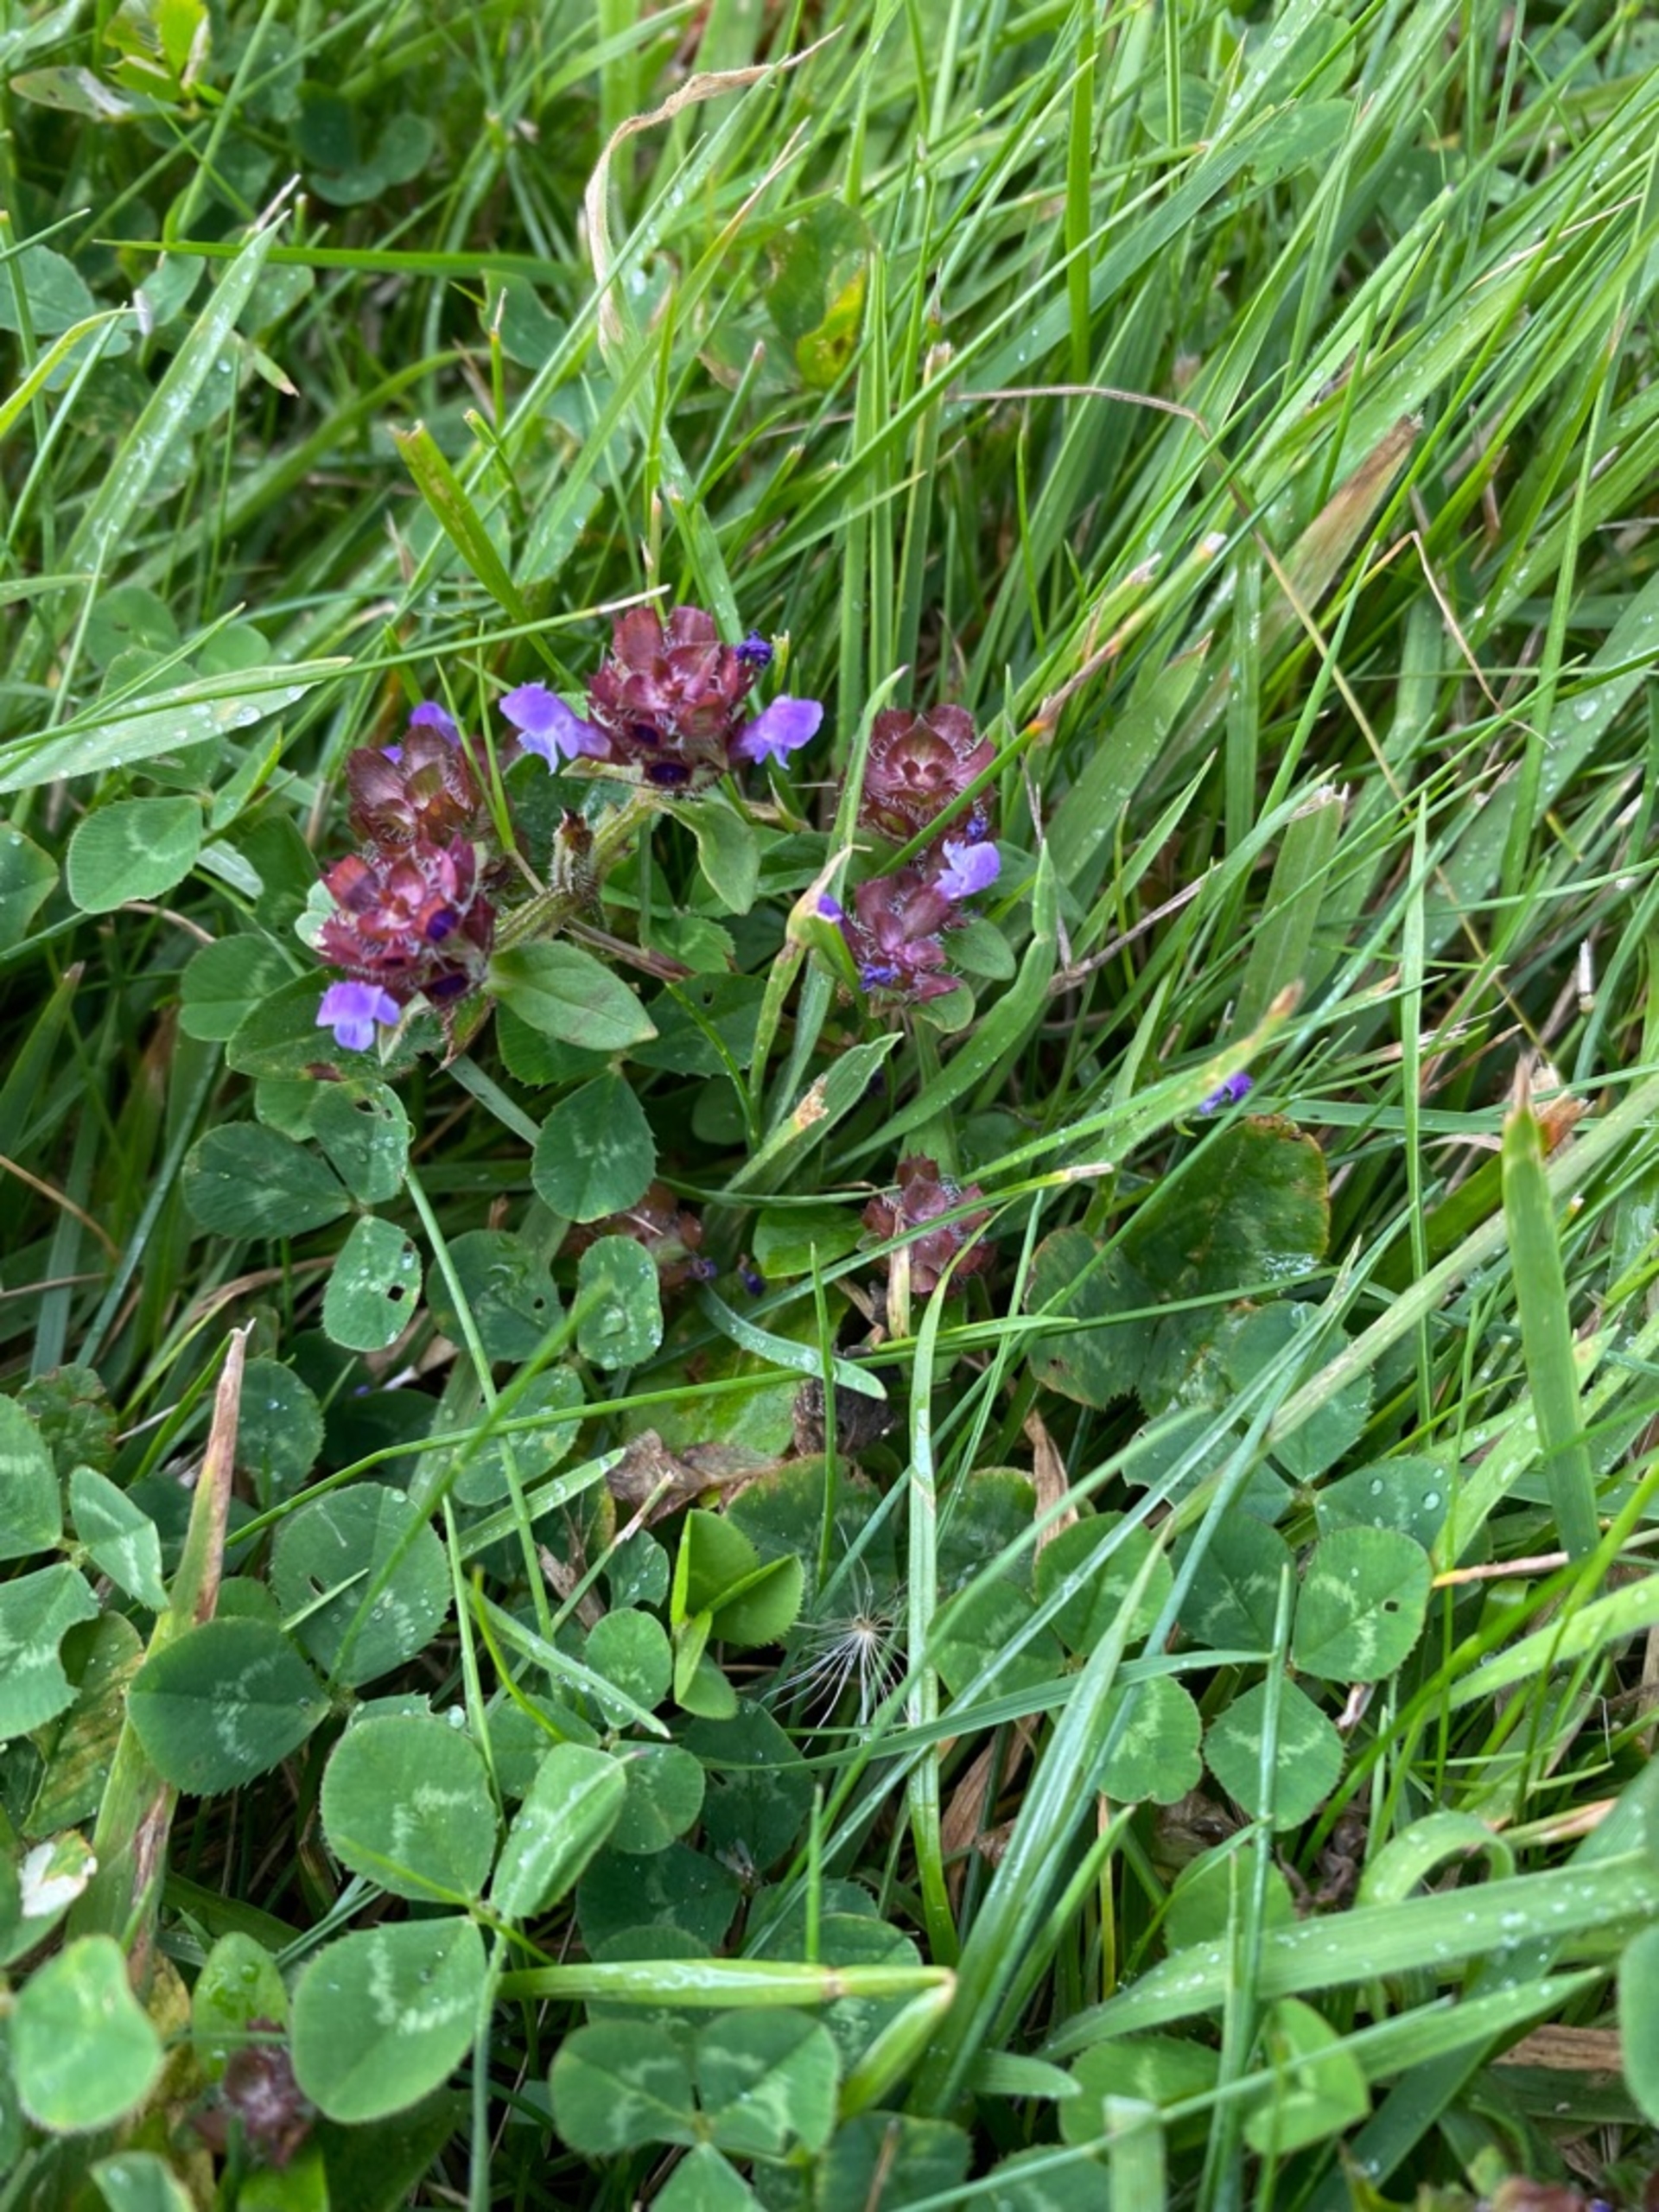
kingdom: Plantae
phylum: Tracheophyta
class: Magnoliopsida
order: Lamiales
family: Lamiaceae
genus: Prunella
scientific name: Prunella vulgaris
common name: Almindelig brunelle
